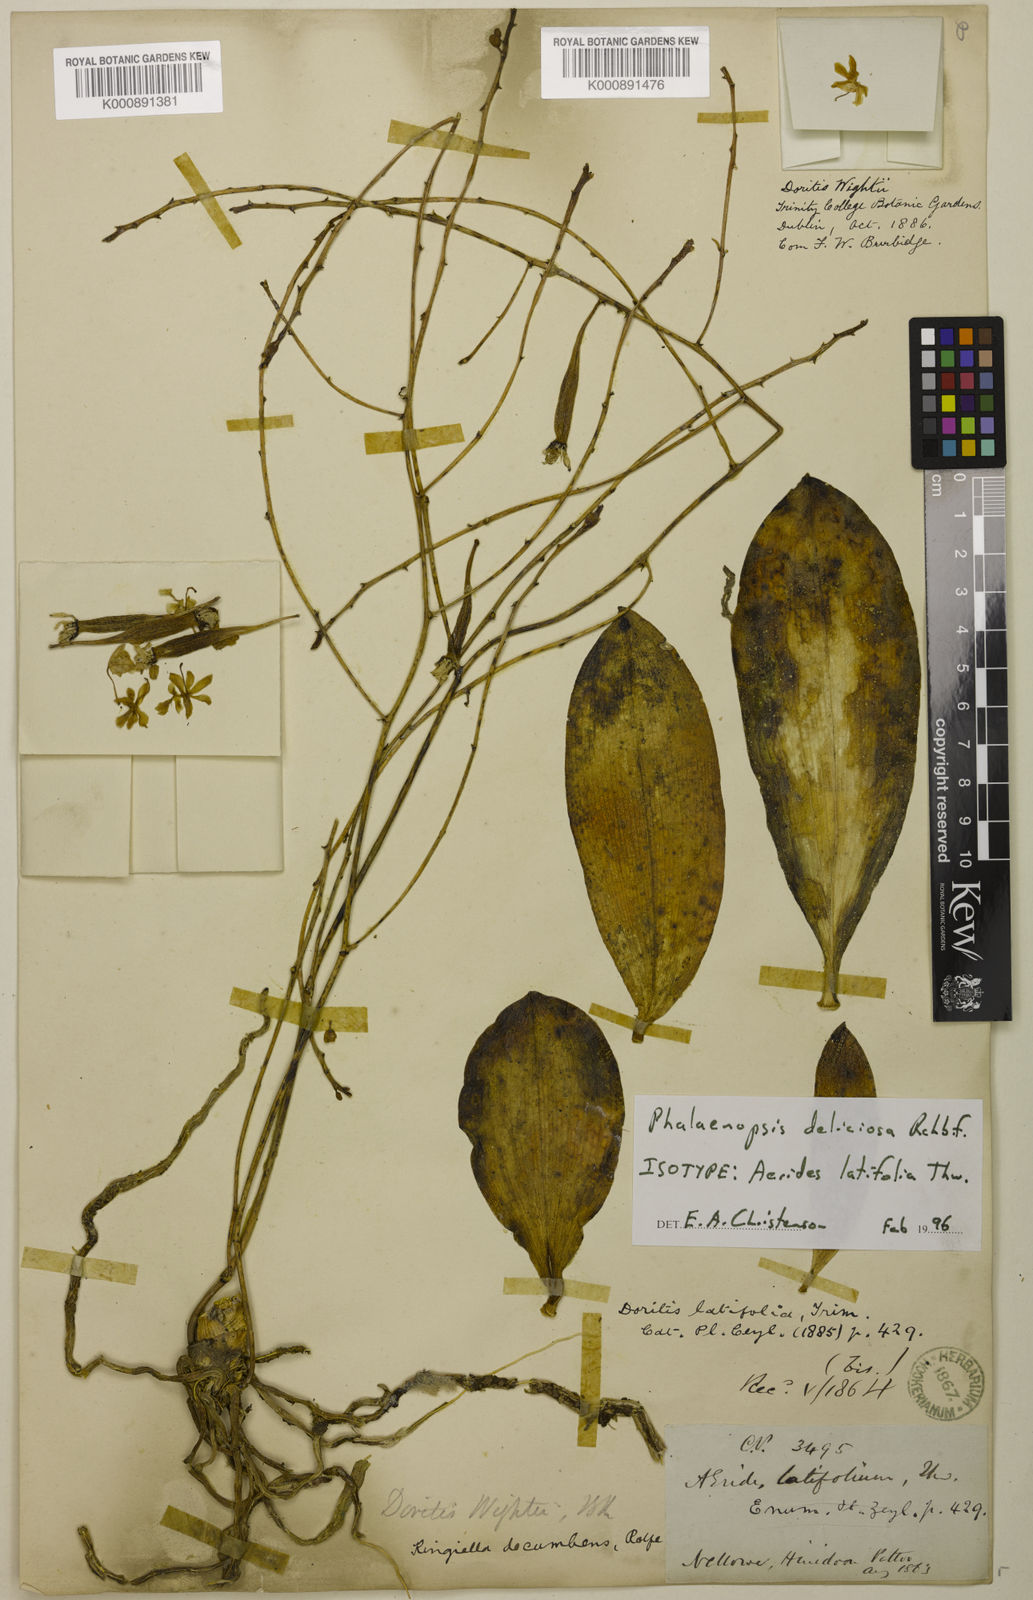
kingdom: Plantae
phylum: Tracheophyta
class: Liliopsida
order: Asparagales
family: Orchidaceae
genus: Phalaenopsis
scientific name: Phalaenopsis parishii
